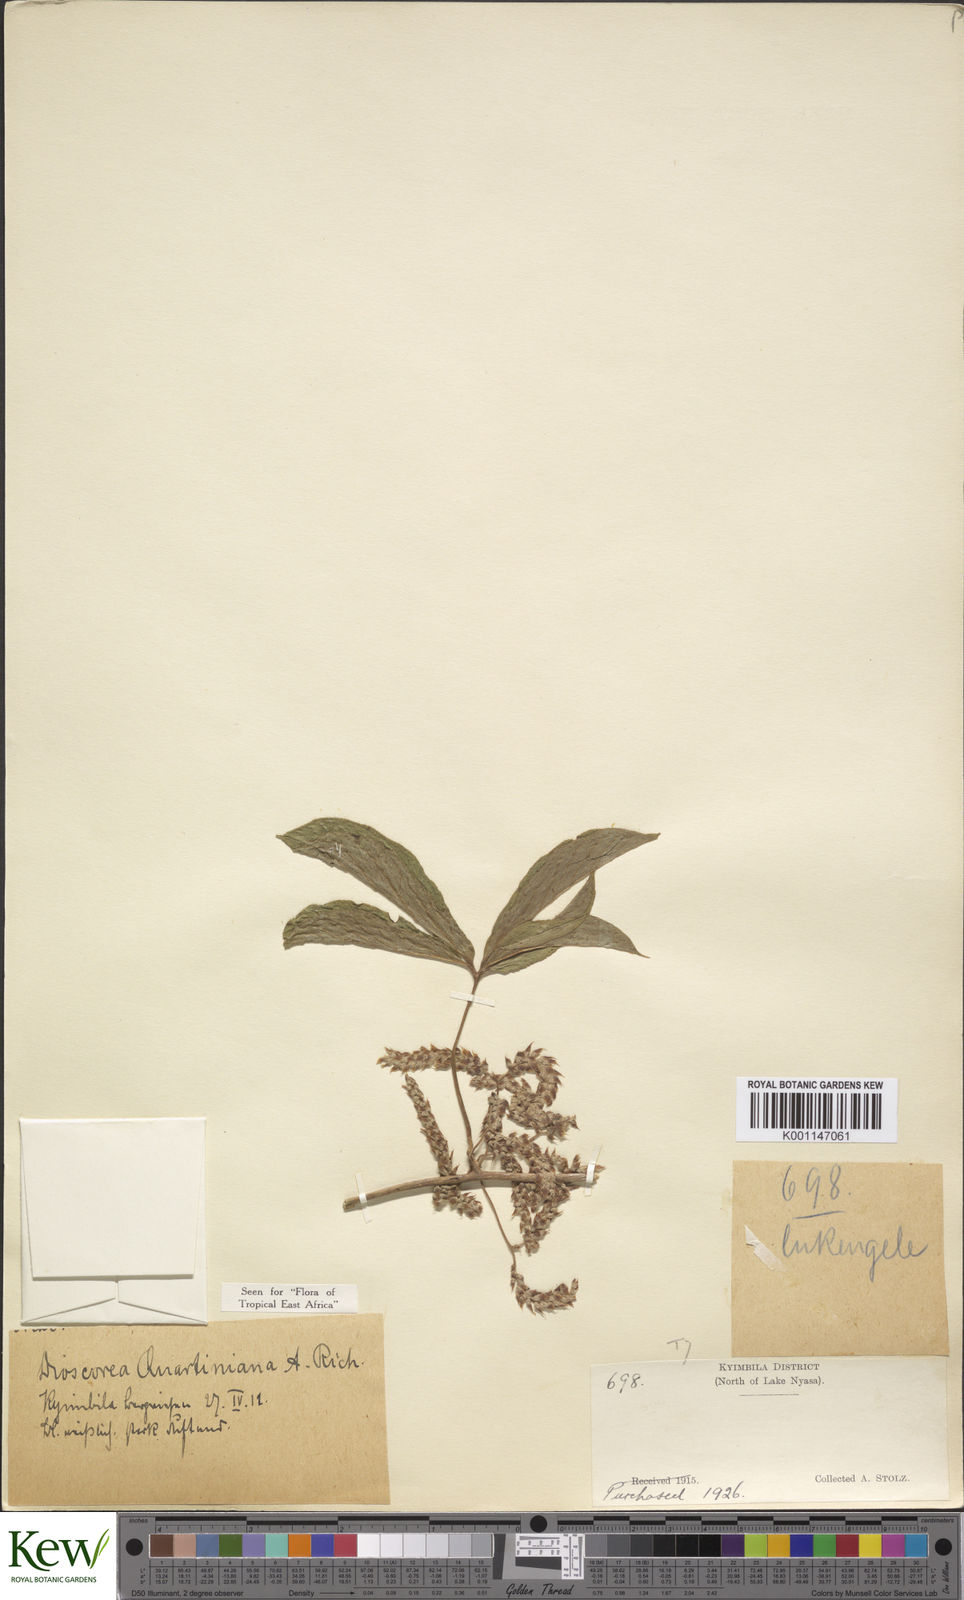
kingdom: Plantae
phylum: Tracheophyta
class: Liliopsida
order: Dioscoreales
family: Dioscoreaceae
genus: Dioscorea
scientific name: Dioscorea quartiniana
